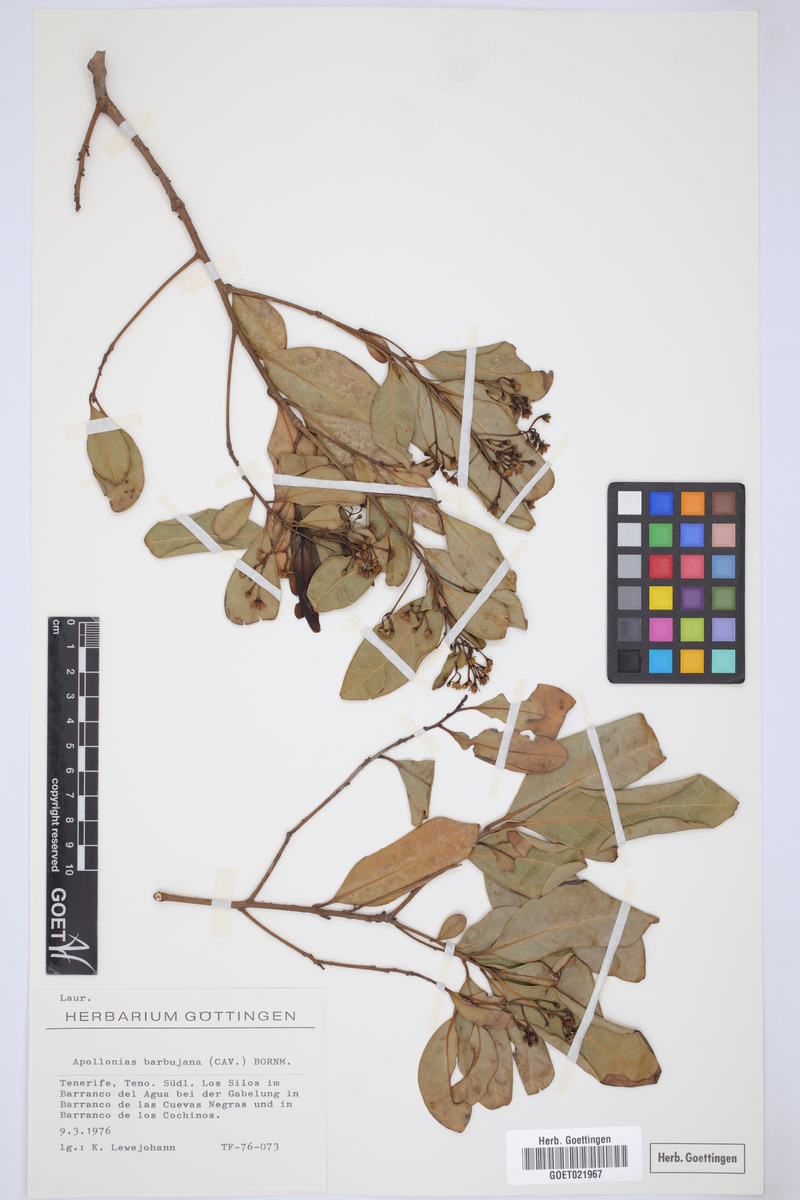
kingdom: Plantae
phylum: Tracheophyta
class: Magnoliopsida
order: Laurales
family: Lauraceae
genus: Apollonias
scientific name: Apollonias barbujana
